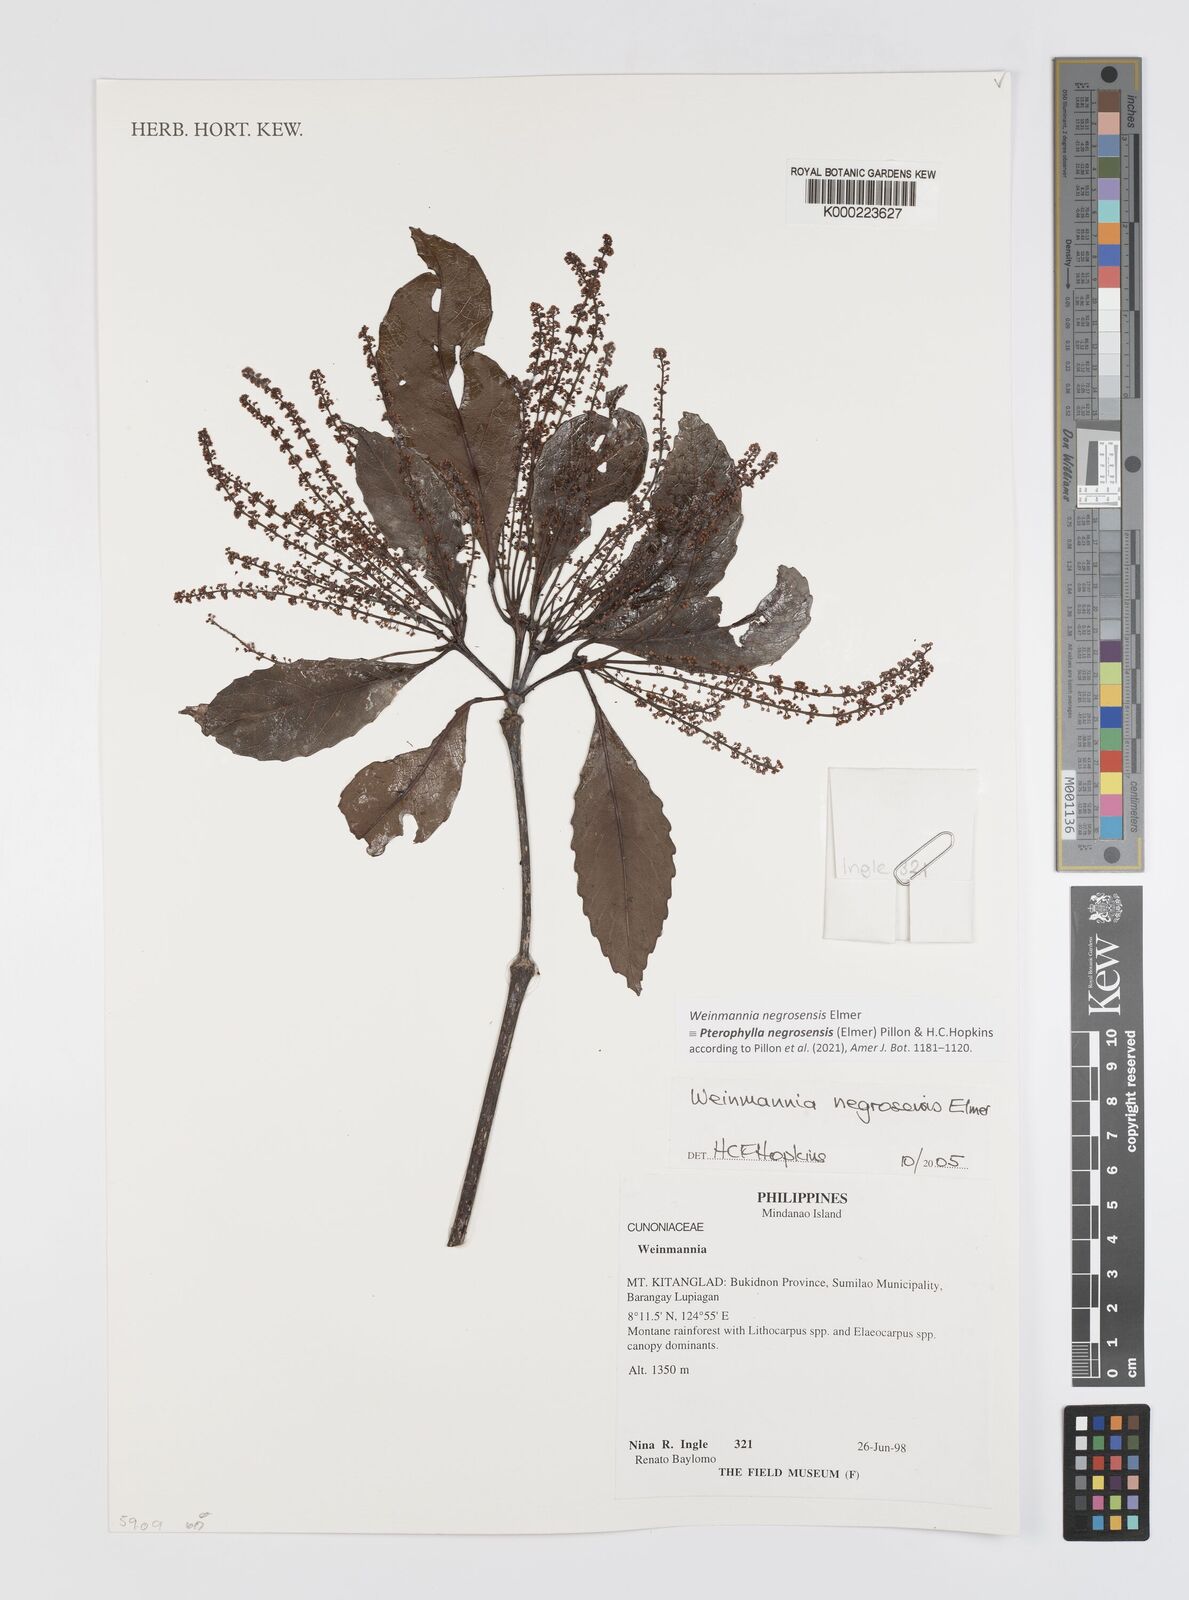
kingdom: Plantae
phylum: Tracheophyta
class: Magnoliopsida
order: Oxalidales
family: Cunoniaceae
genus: Pterophylla
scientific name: Pterophylla negrosensis
